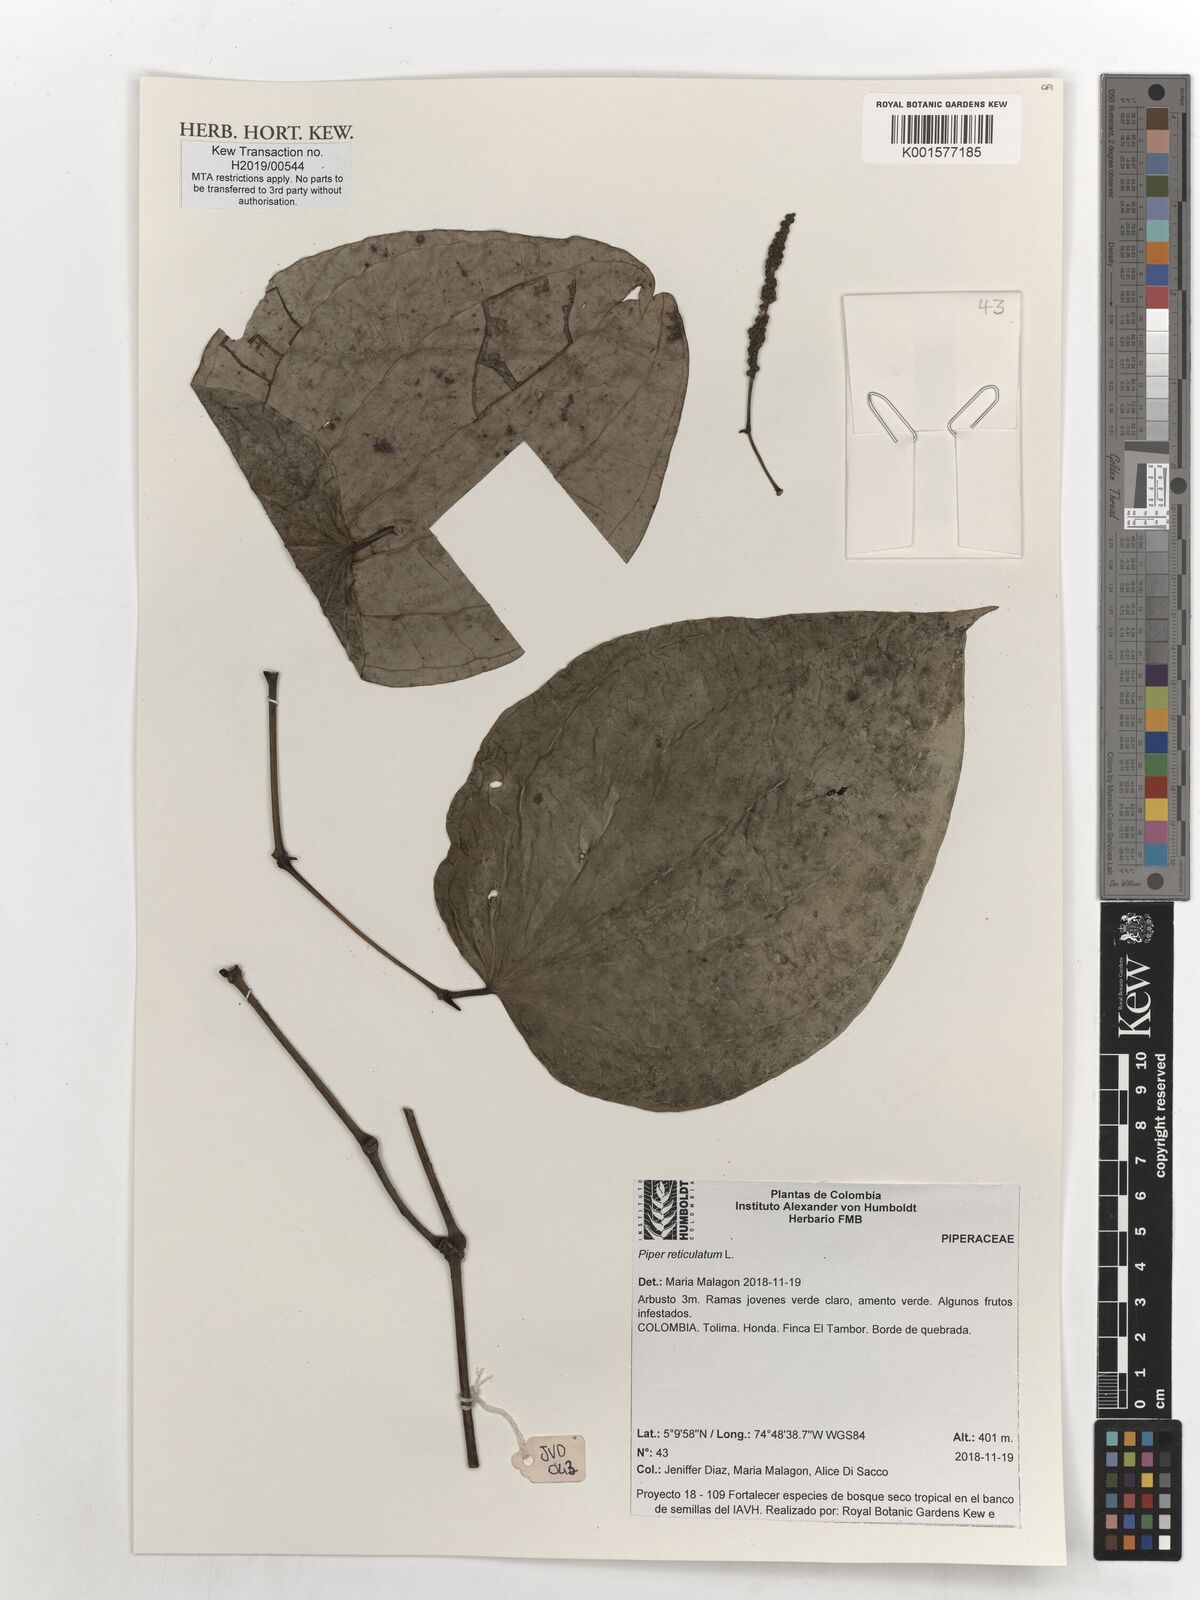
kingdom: Plantae
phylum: Tracheophyta
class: Magnoliopsida
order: Piperales
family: Piperaceae
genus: Piper
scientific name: Piper reticulatum
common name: Wild cane
